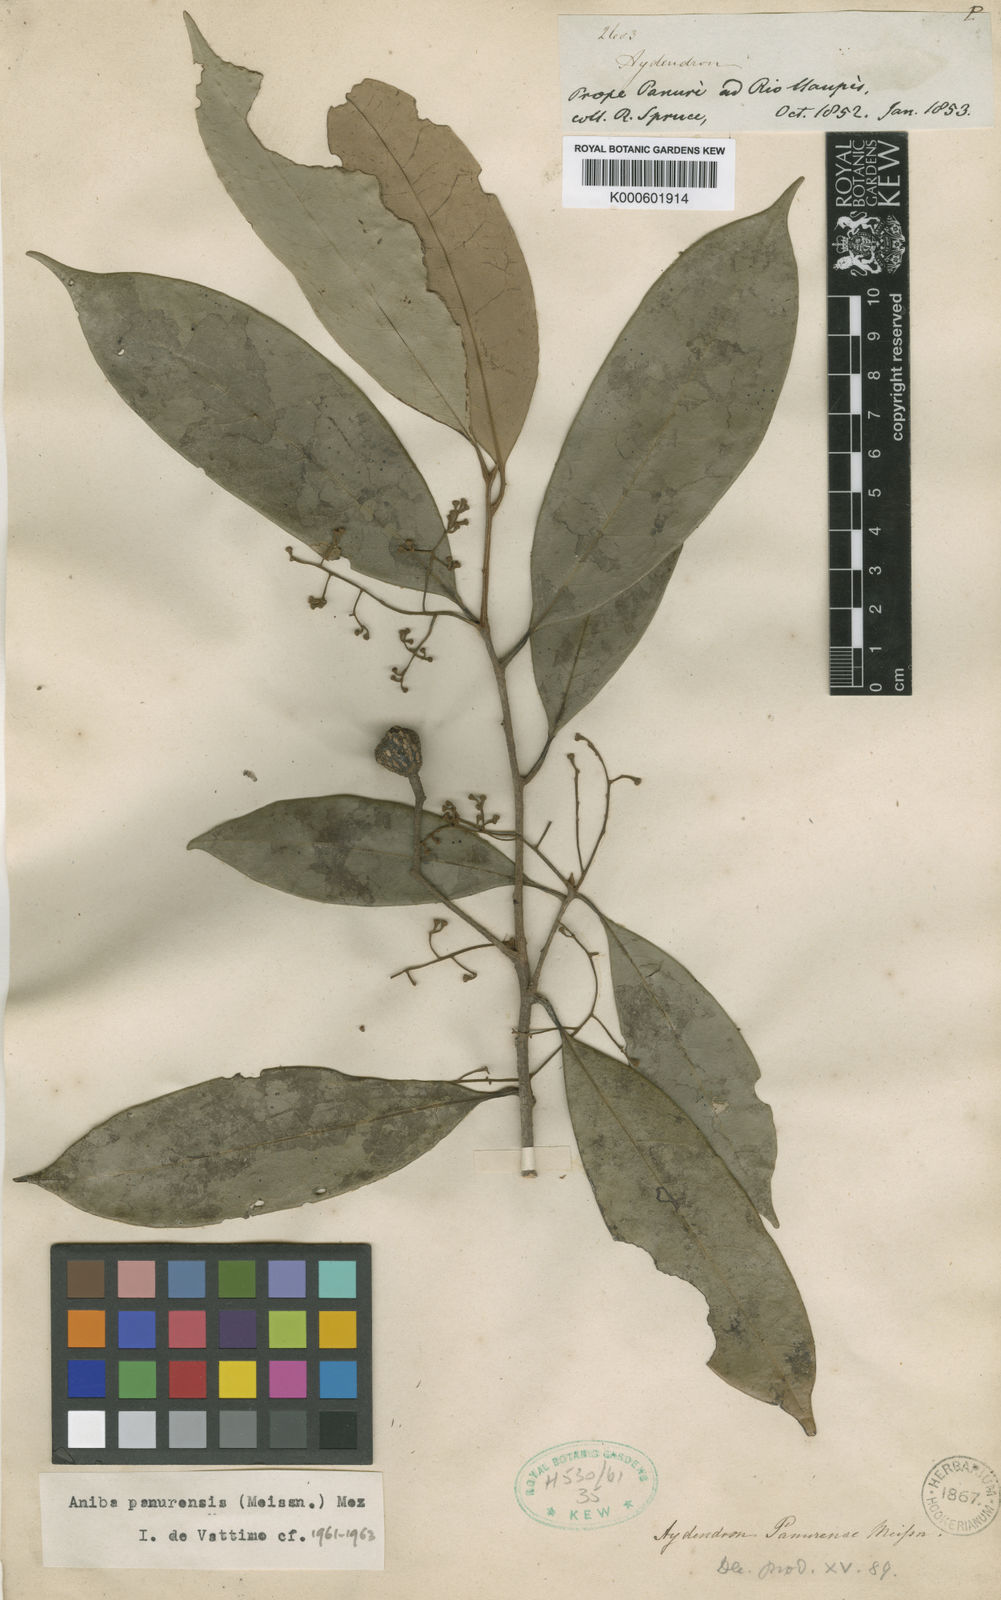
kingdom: Plantae
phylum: Tracheophyta
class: Magnoliopsida
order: Laurales
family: Lauraceae
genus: Aniba
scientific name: Aniba panurensis
